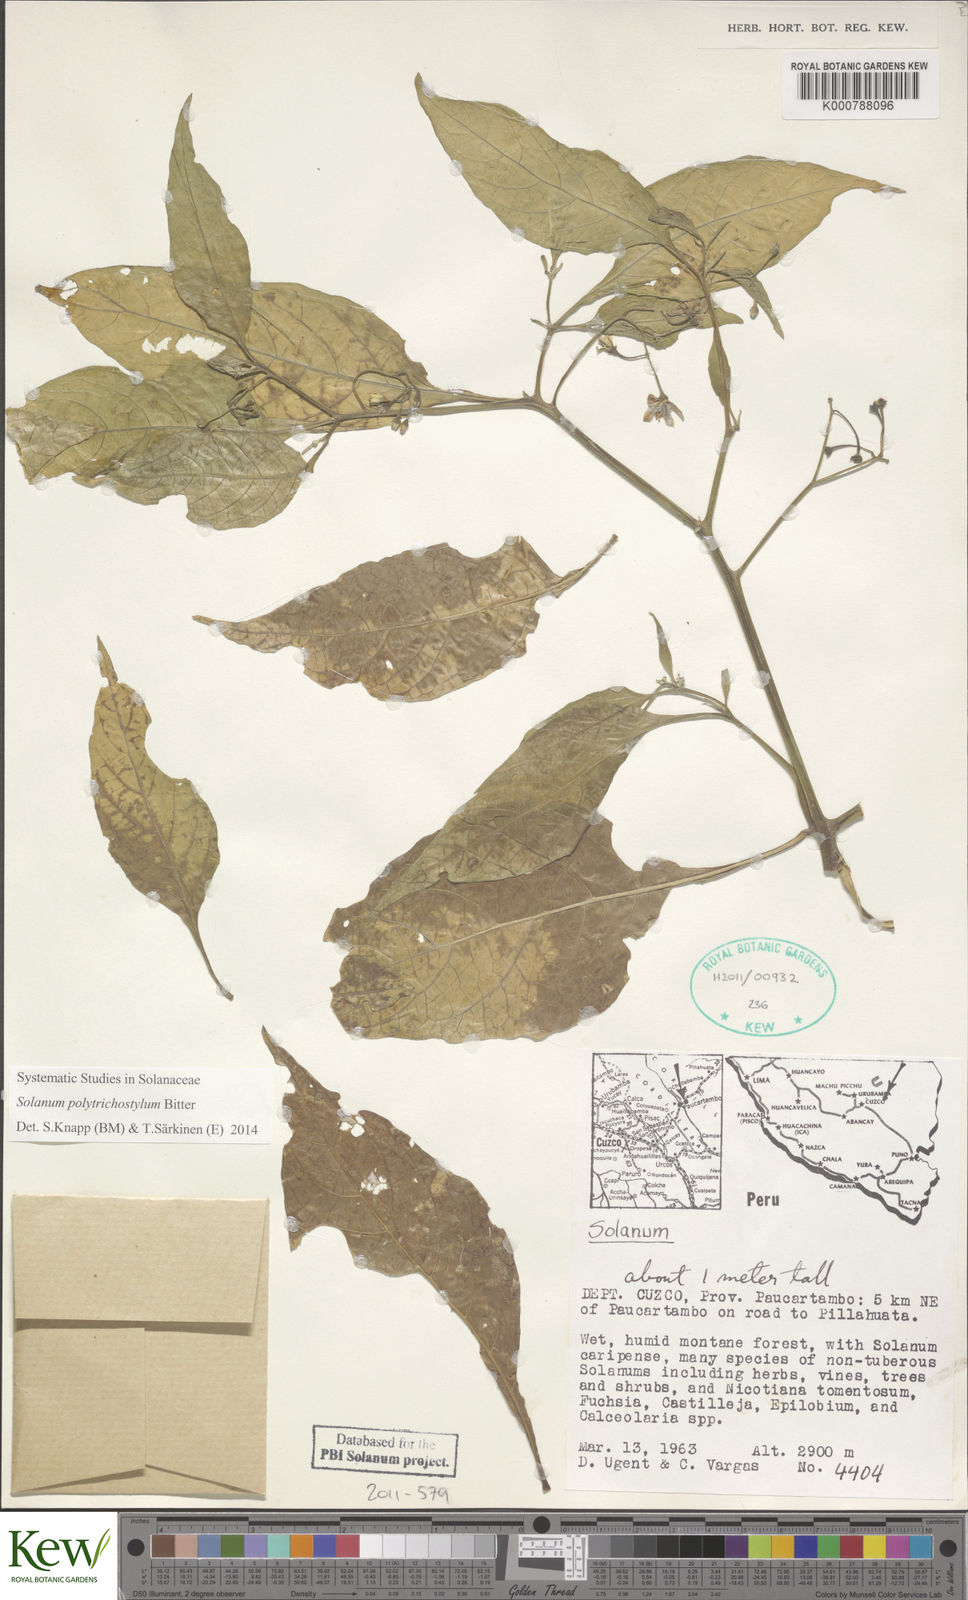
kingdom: Plantae
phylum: Tracheophyta
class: Magnoliopsida
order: Solanales
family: Solanaceae
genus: Solanum
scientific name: Solanum polytrichostylum
